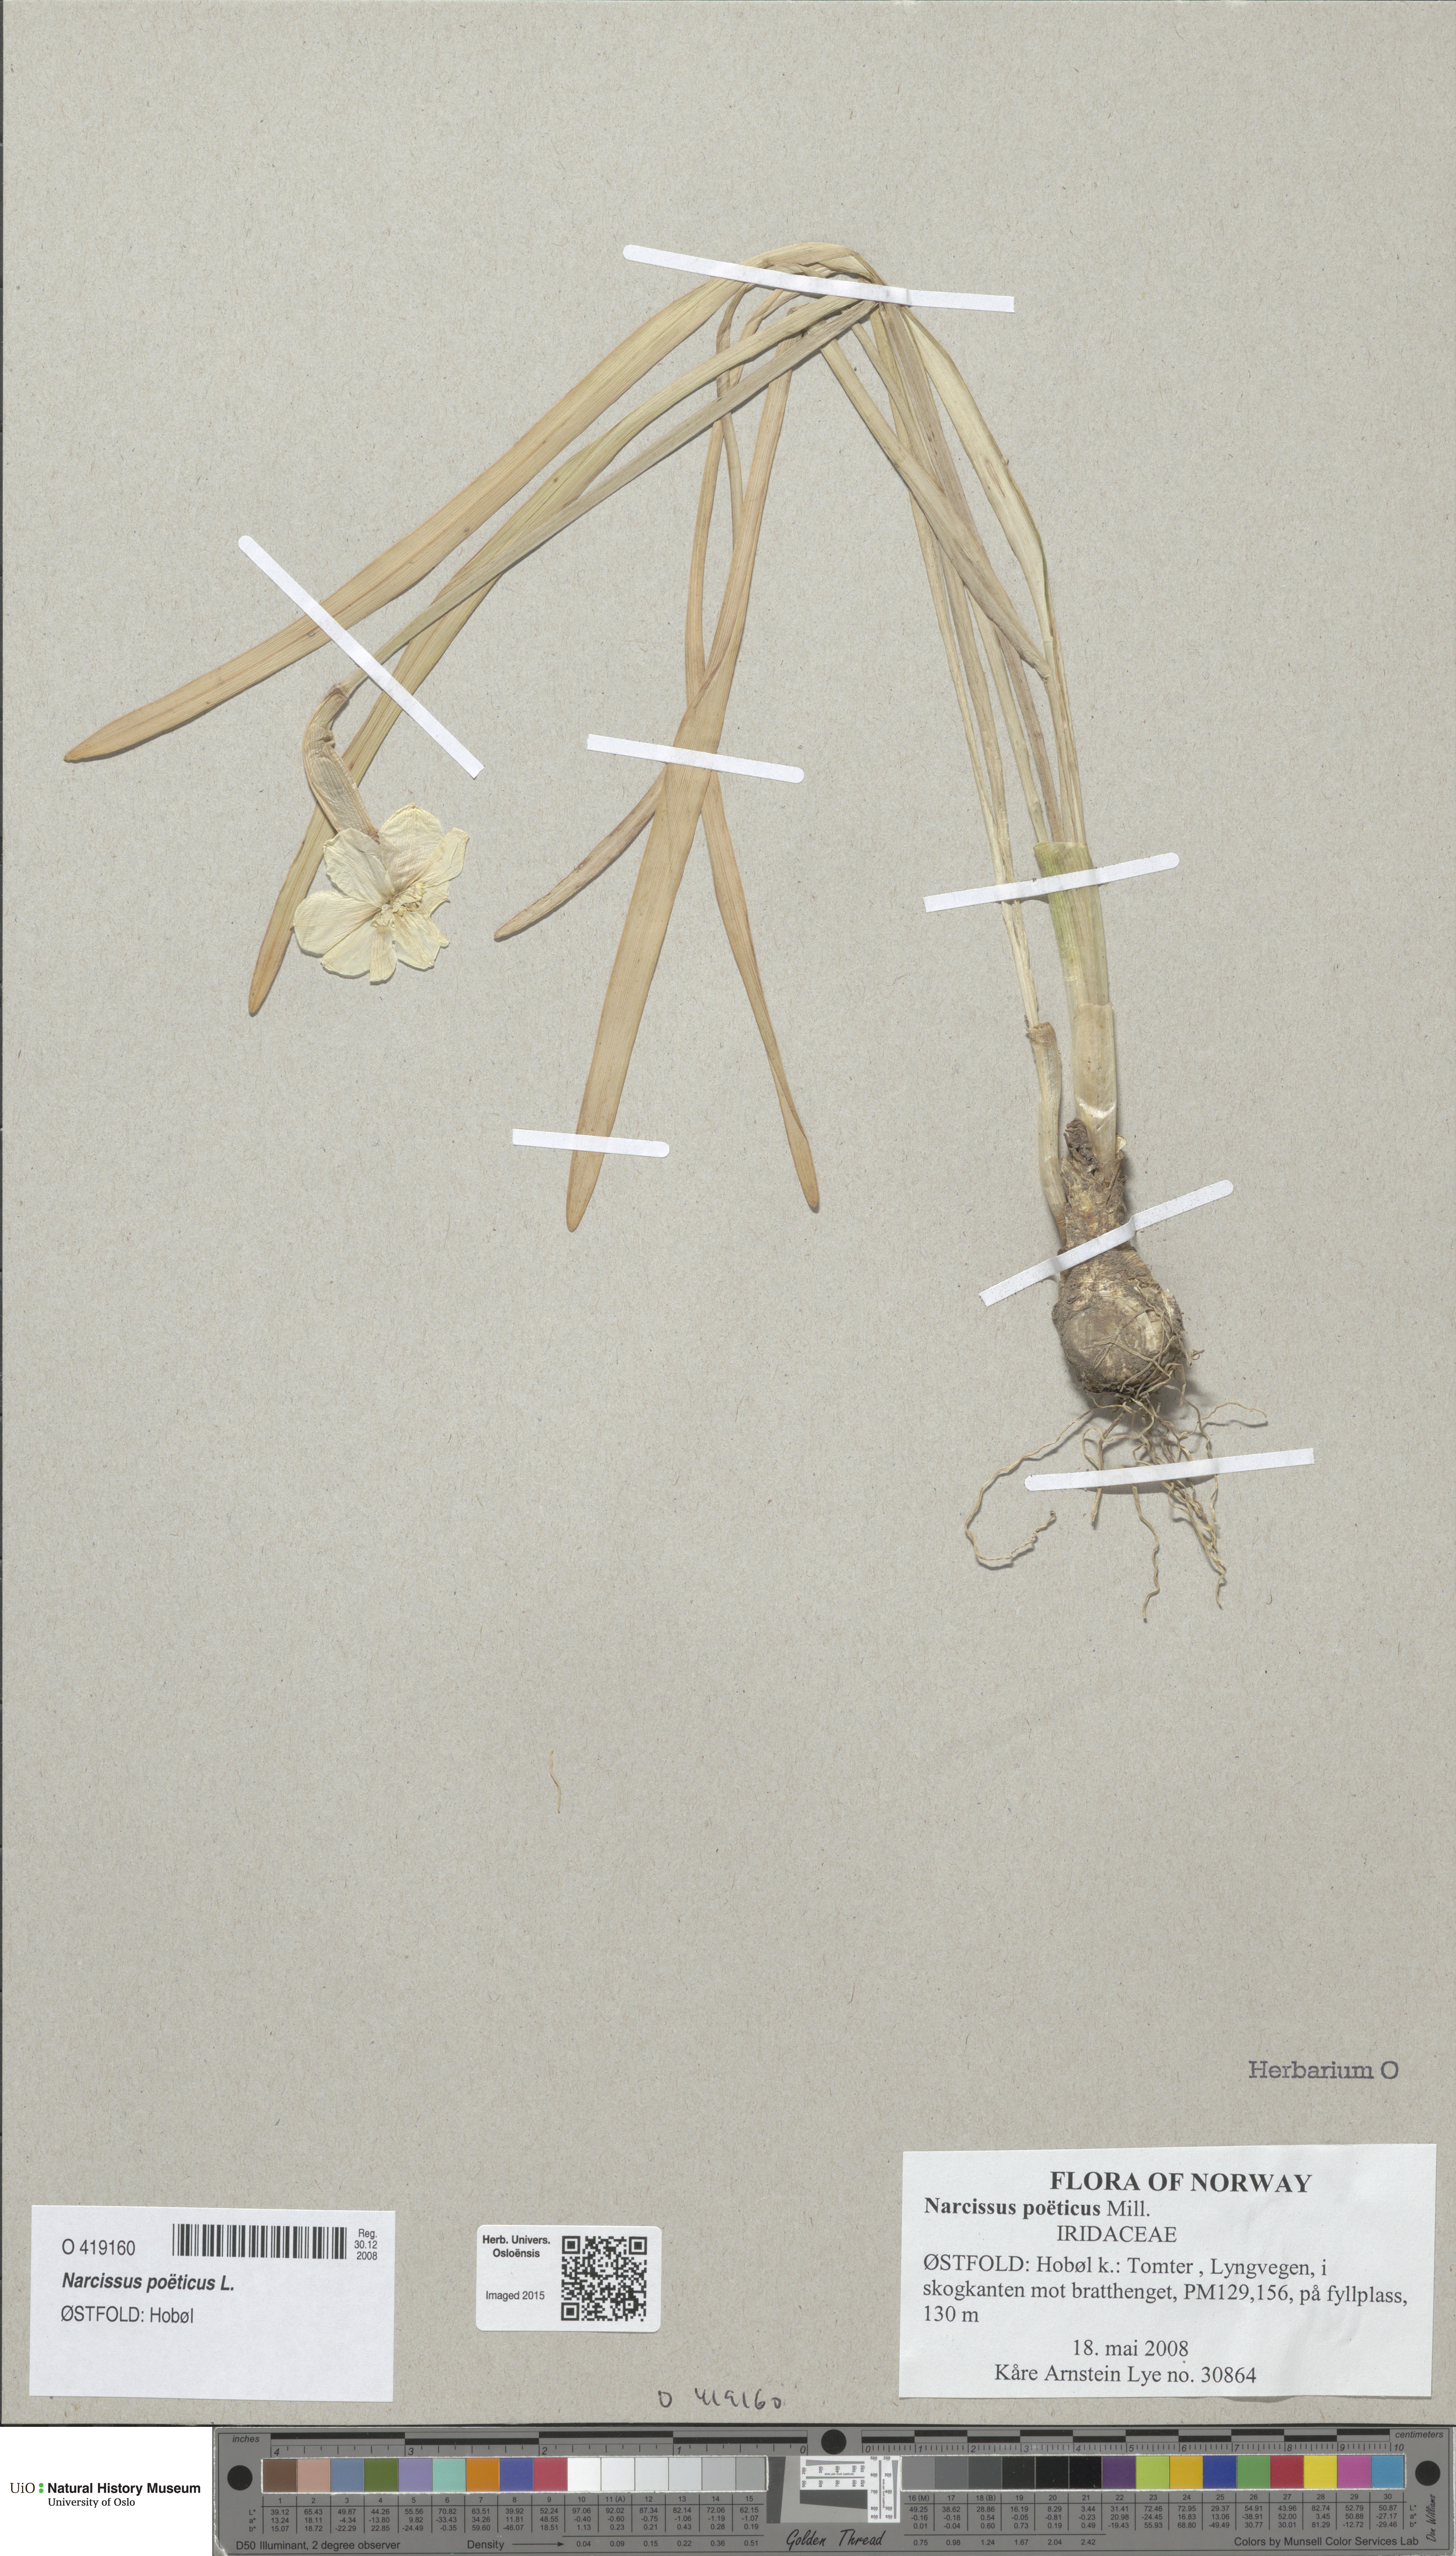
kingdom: Plantae
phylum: Tracheophyta
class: Liliopsida
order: Asparagales
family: Amaryllidaceae
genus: Narcissus
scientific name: Narcissus poeticus
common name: Pheasant's-eye daffodil
